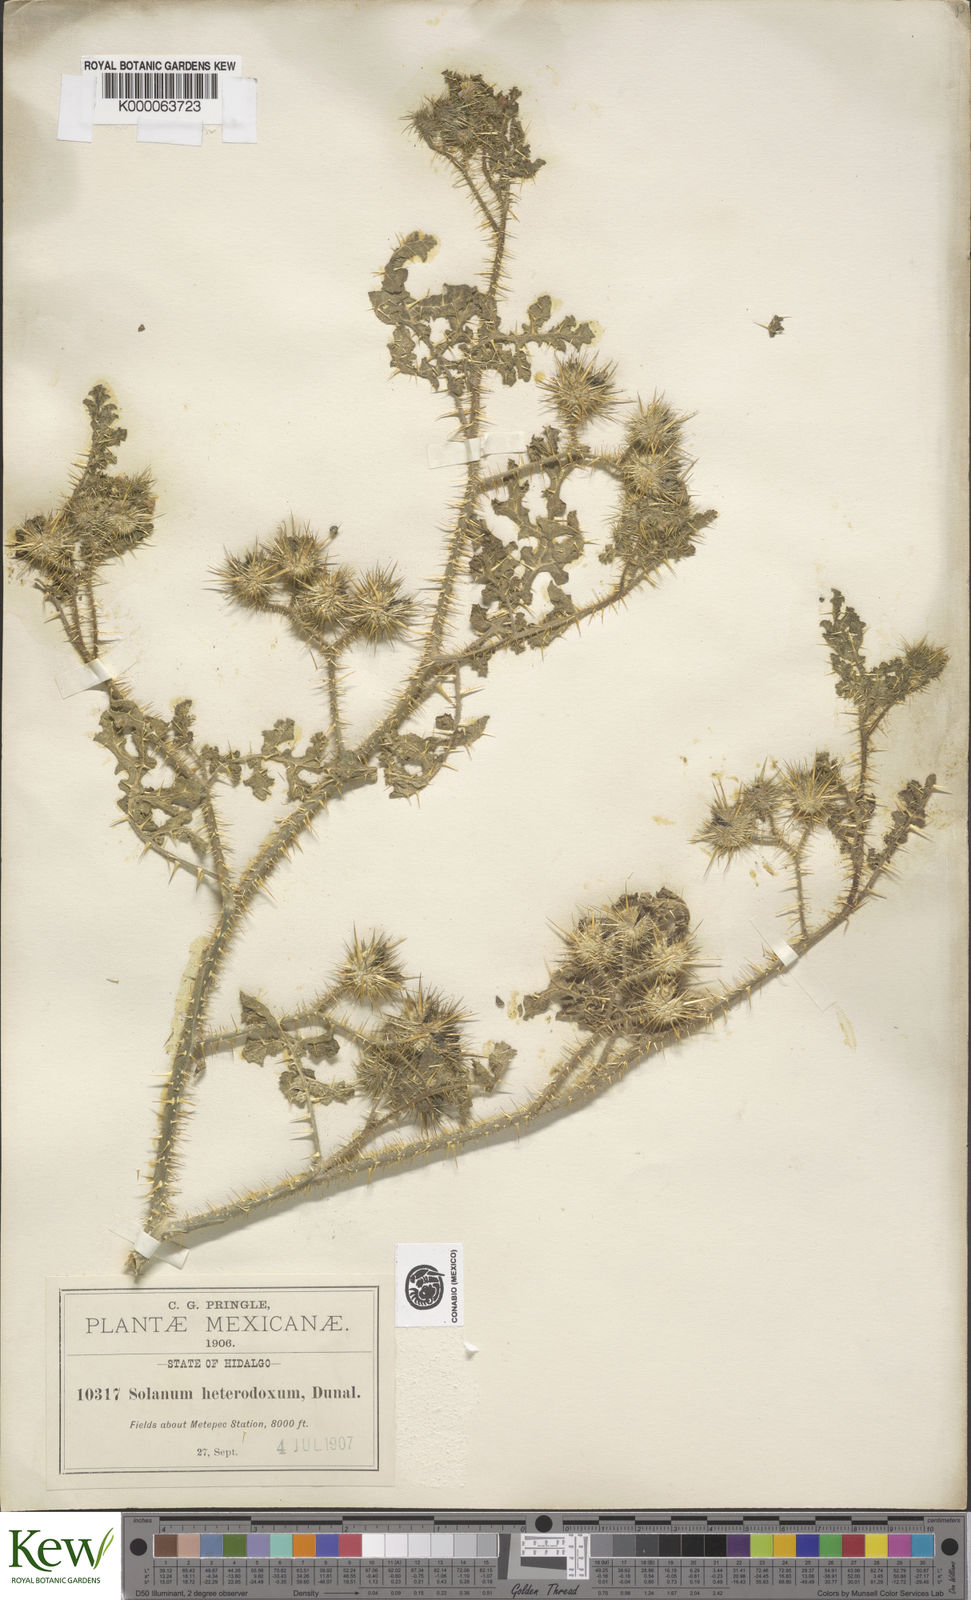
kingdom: Plantae
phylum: Tracheophyta
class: Magnoliopsida
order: Solanales
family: Solanaceae
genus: Solanum
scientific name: Solanum heterodoxum
